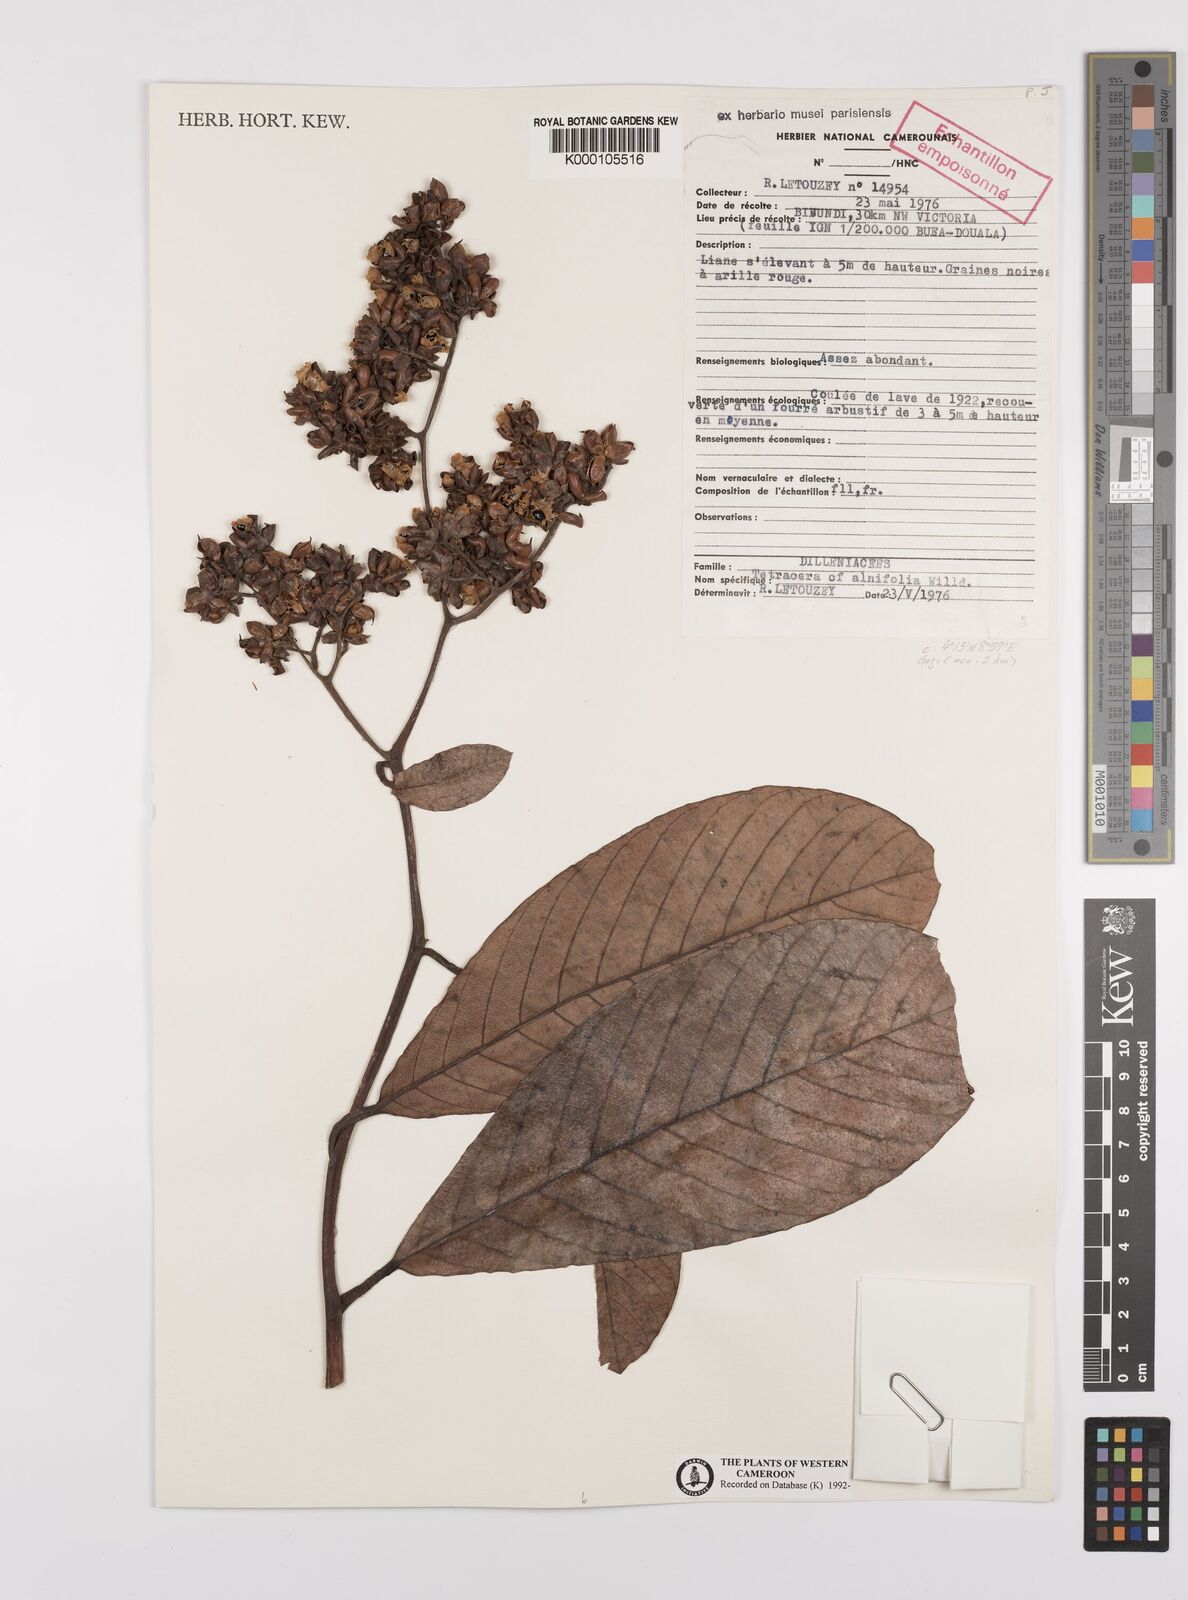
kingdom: Plantae
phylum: Tracheophyta
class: Magnoliopsida
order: Dilleniales
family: Dilleniaceae
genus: Tetracera
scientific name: Tetracera alnifolia
